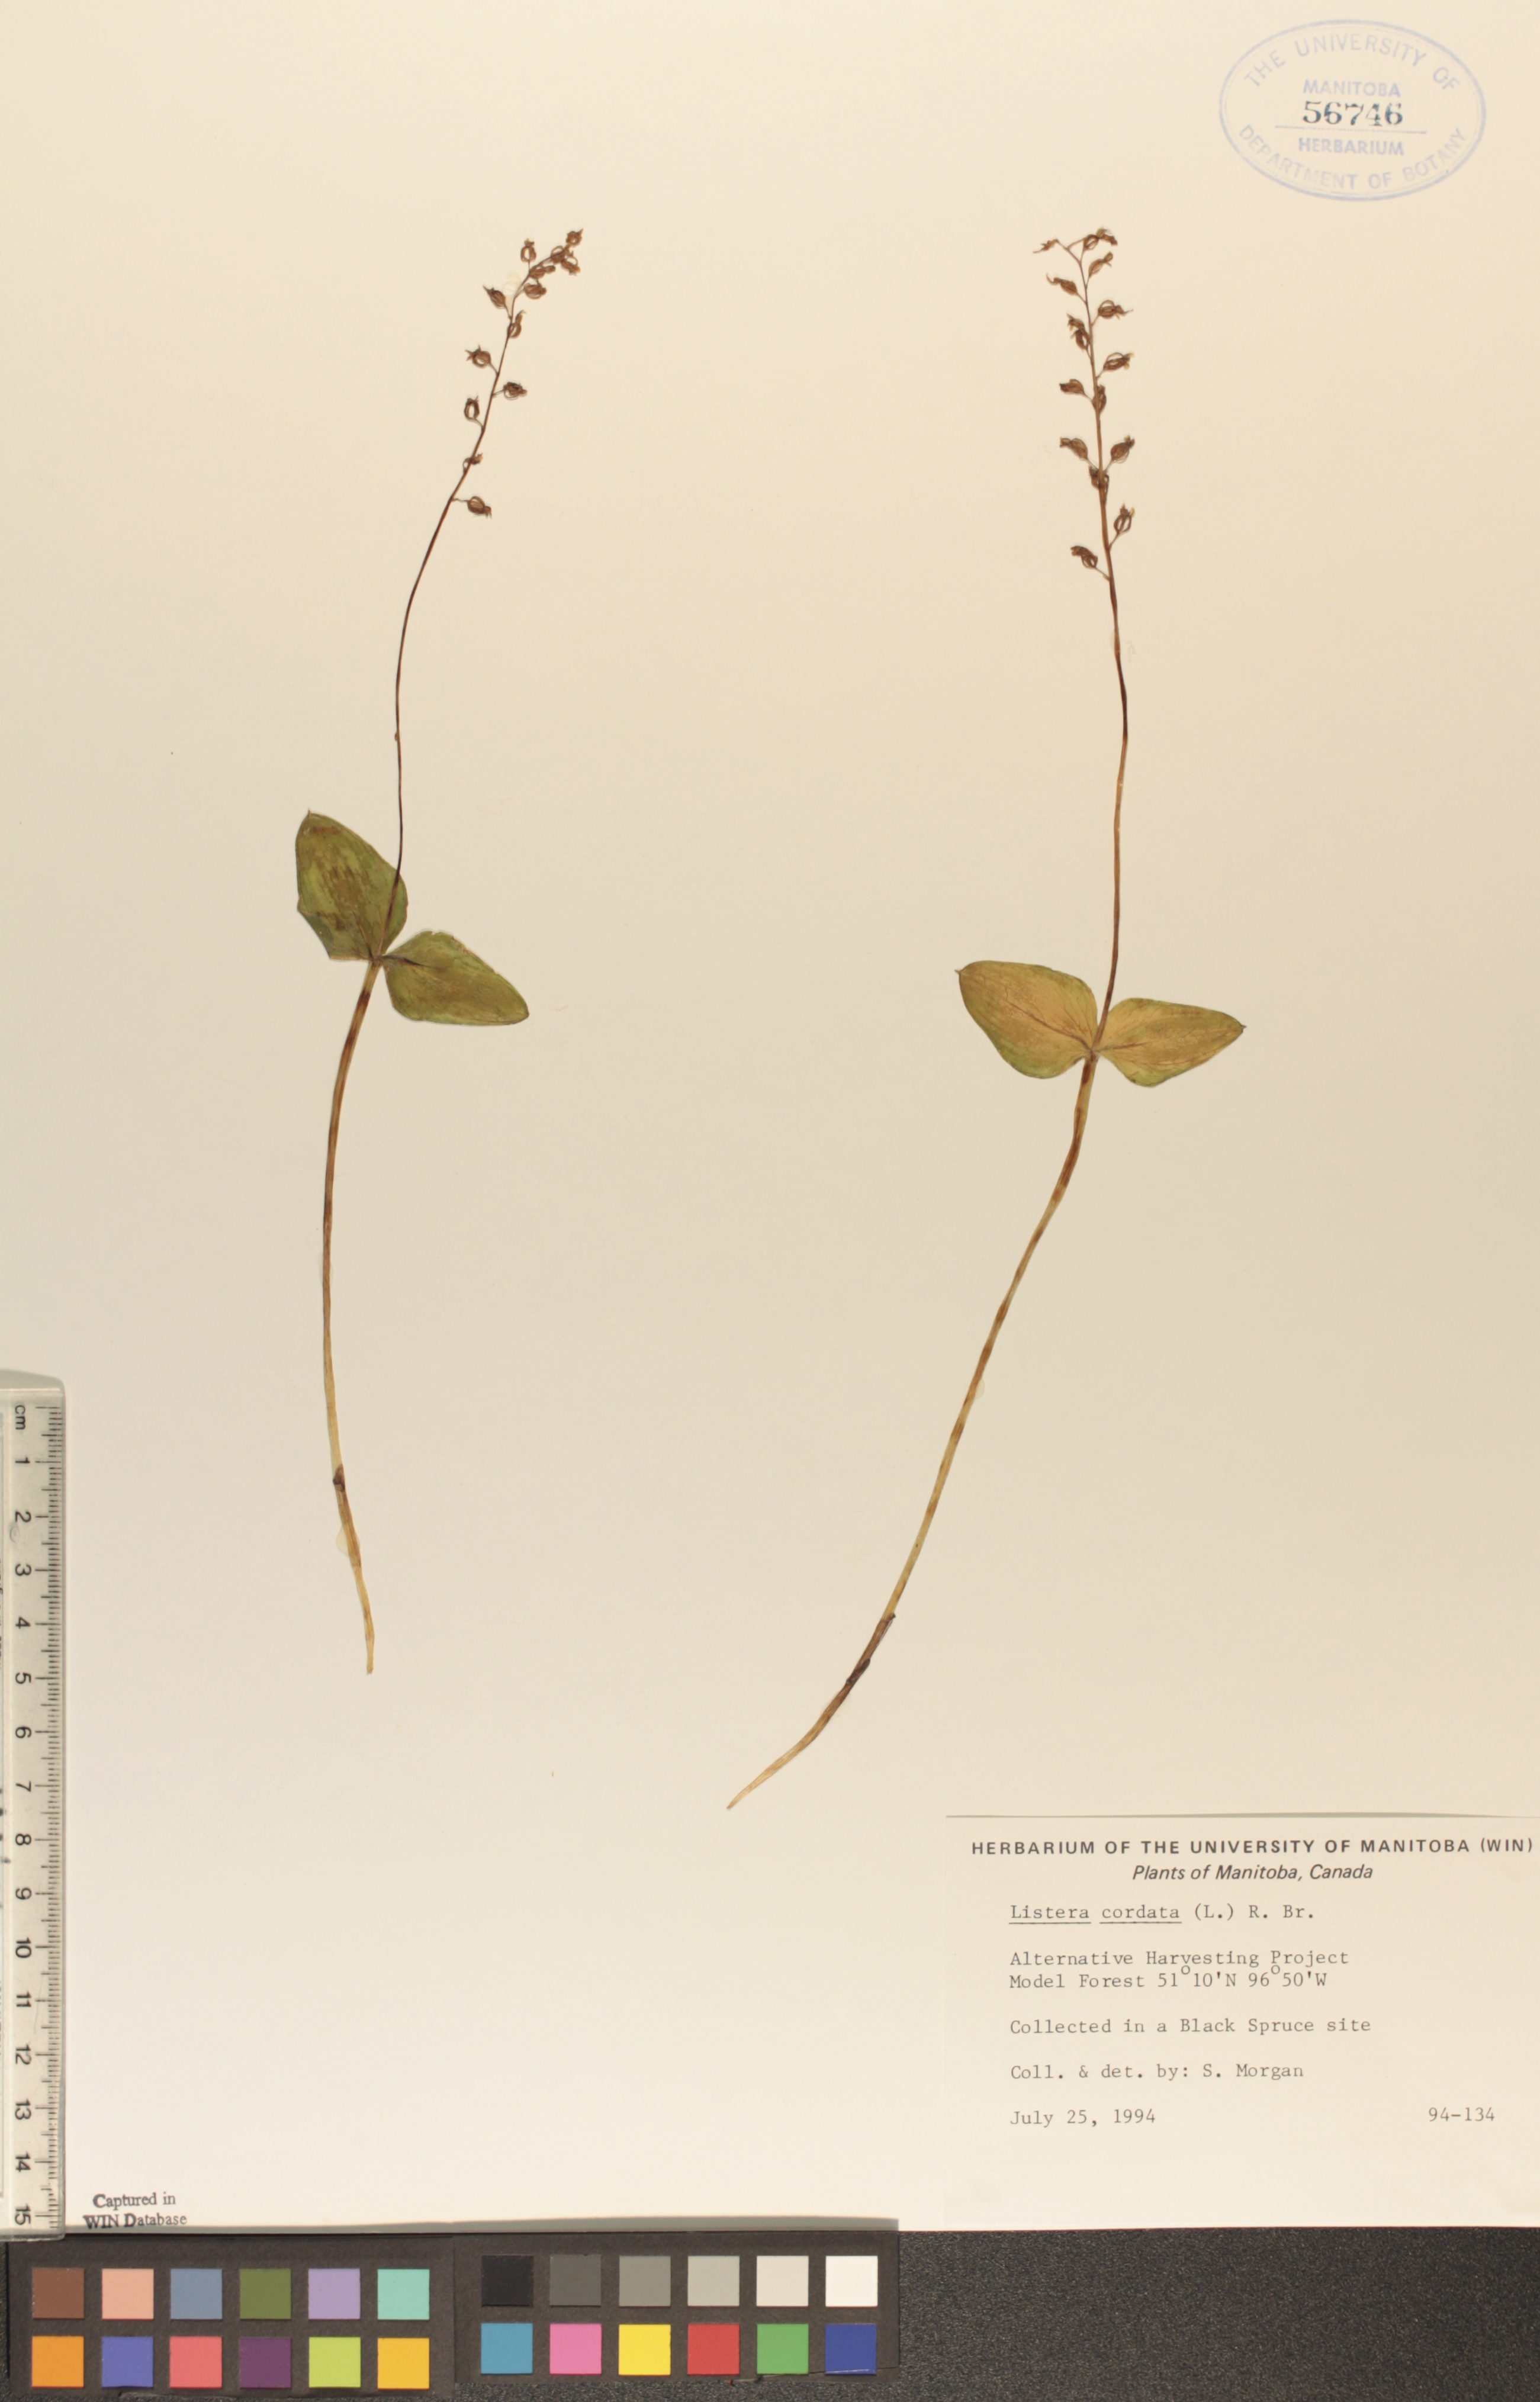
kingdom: Plantae
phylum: Tracheophyta
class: Liliopsida
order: Asparagales
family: Orchidaceae
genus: Neottia
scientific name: Neottia cordata
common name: Lesser twayblade
